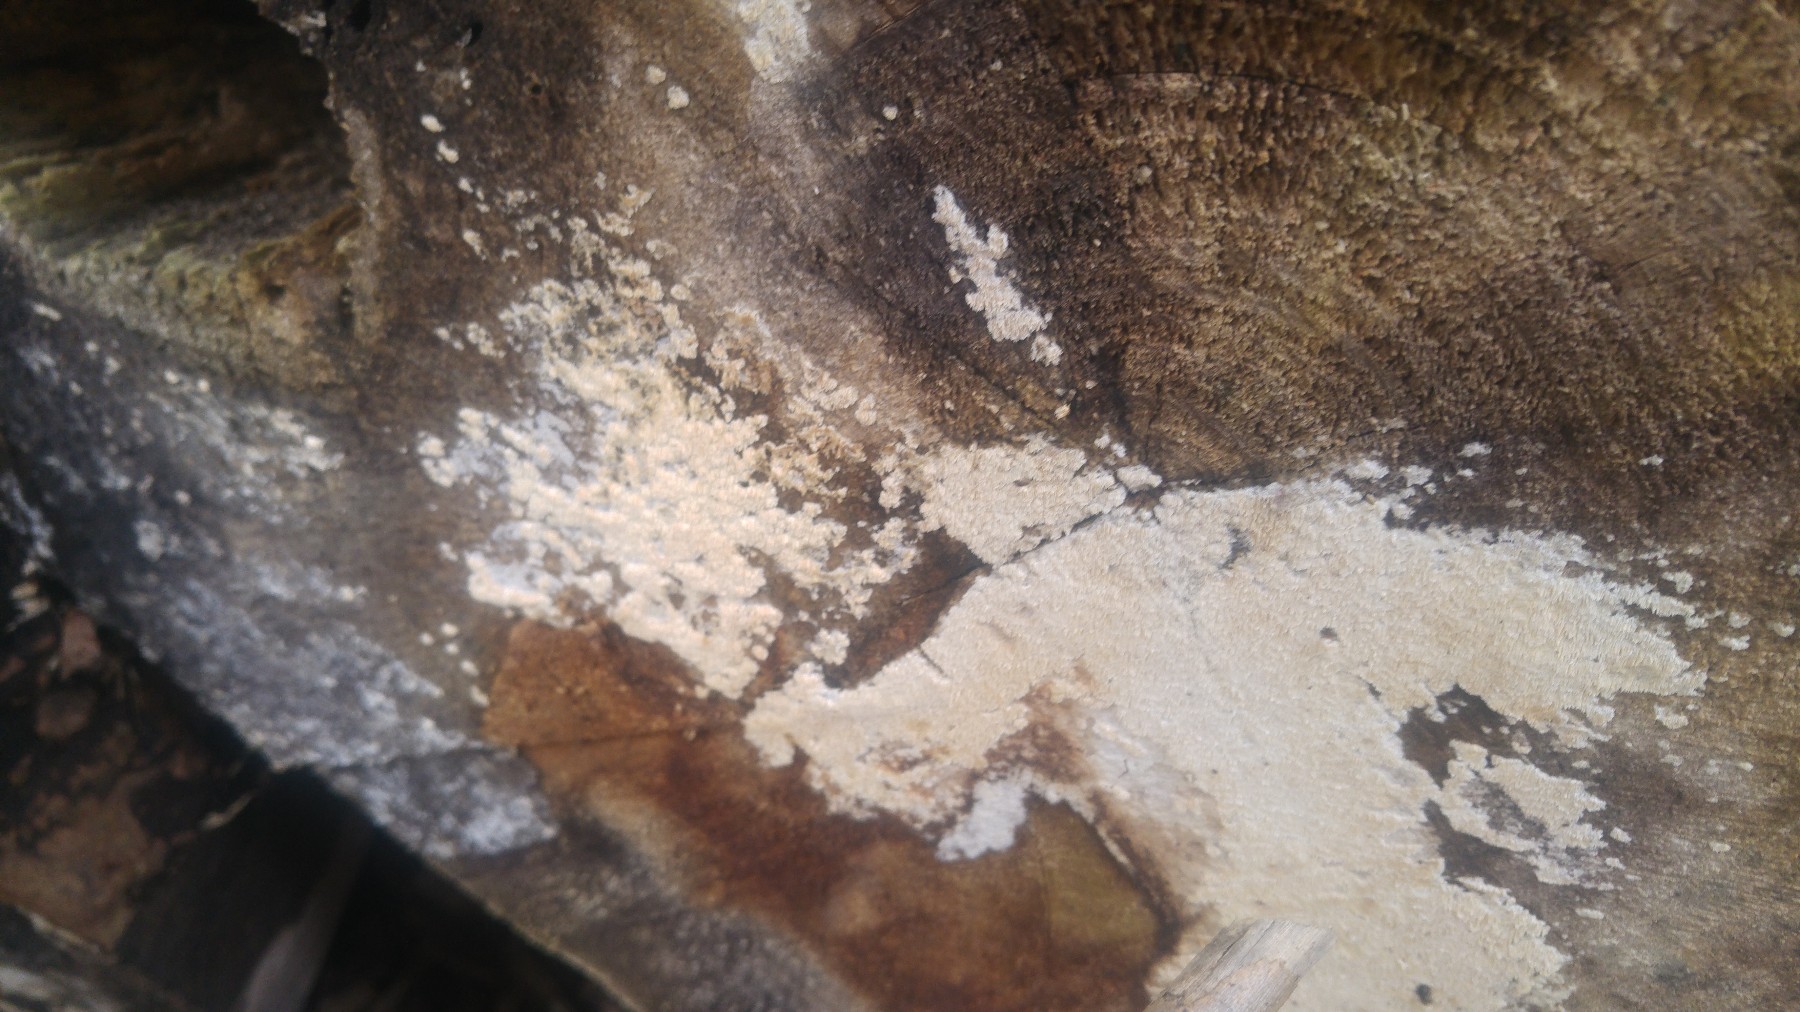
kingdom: Fungi
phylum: Basidiomycota
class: Agaricomycetes
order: Hymenochaetales
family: Schizoporaceae
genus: Xylodon
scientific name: Xylodon
